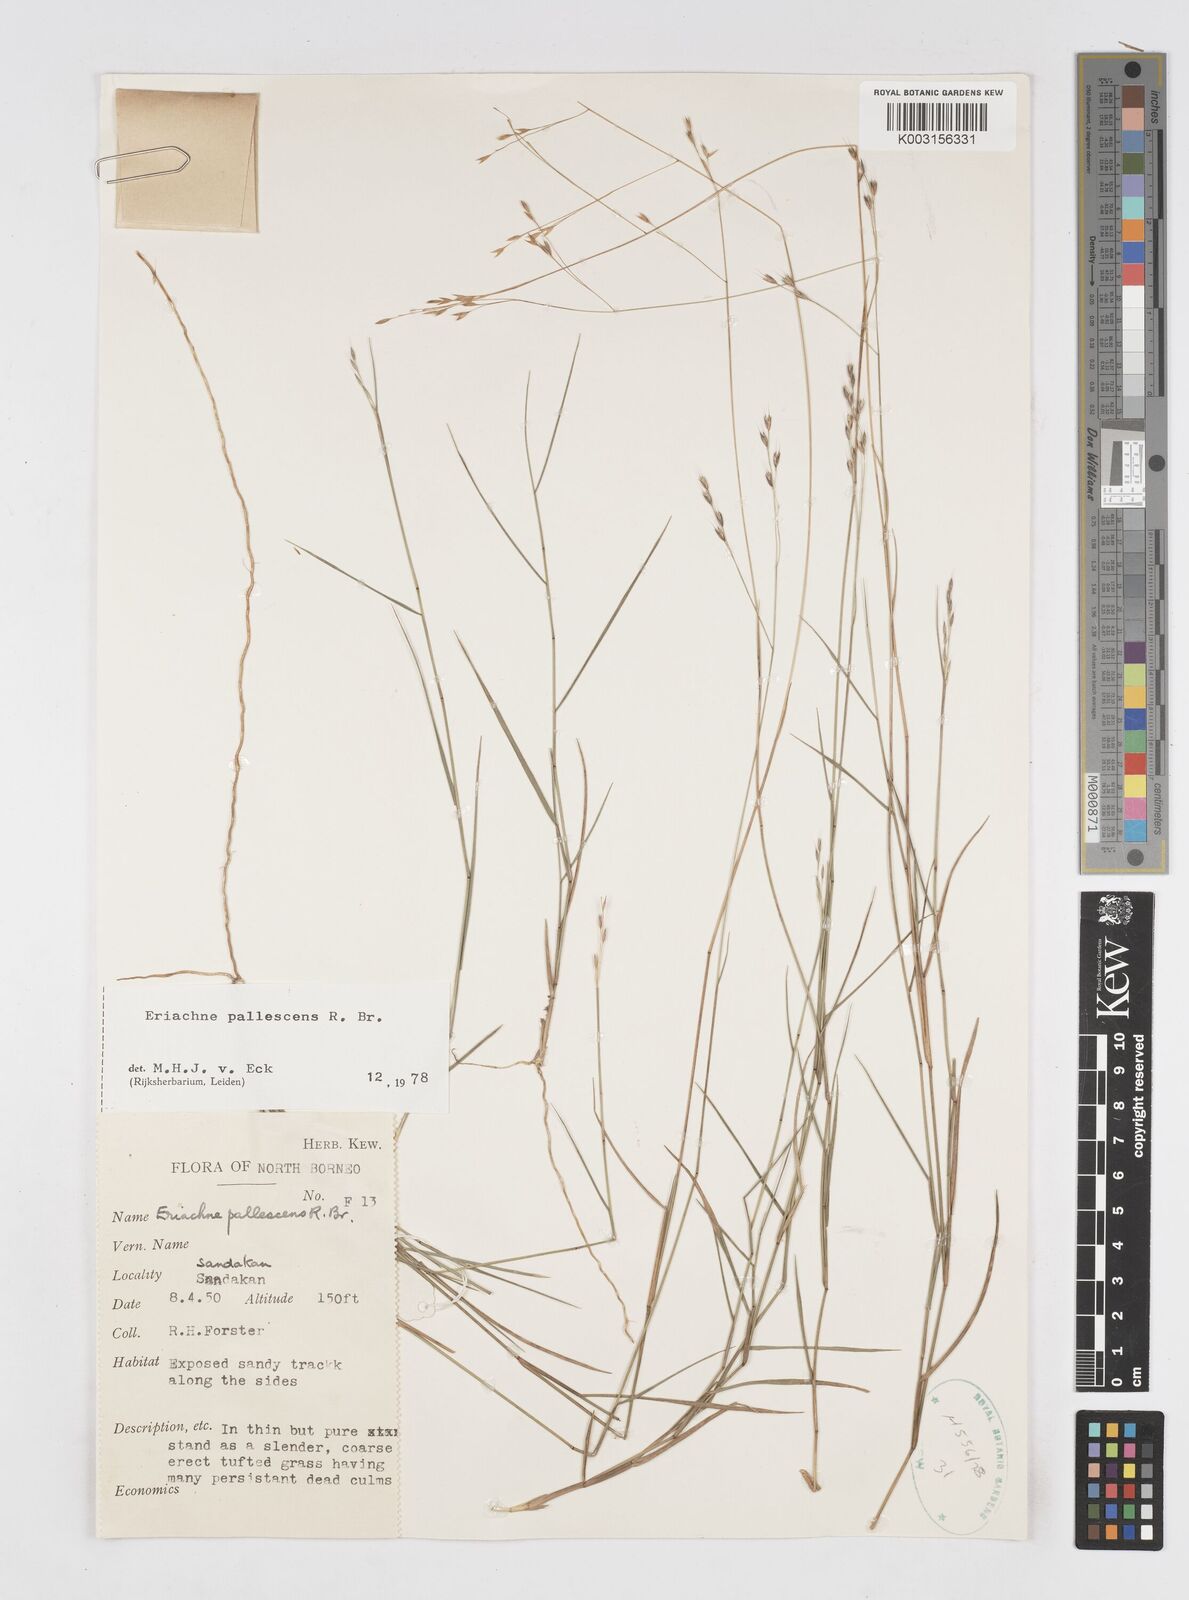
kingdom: Plantae
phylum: Tracheophyta
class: Liliopsida
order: Poales
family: Poaceae
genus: Eriachne
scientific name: Eriachne pallescens
